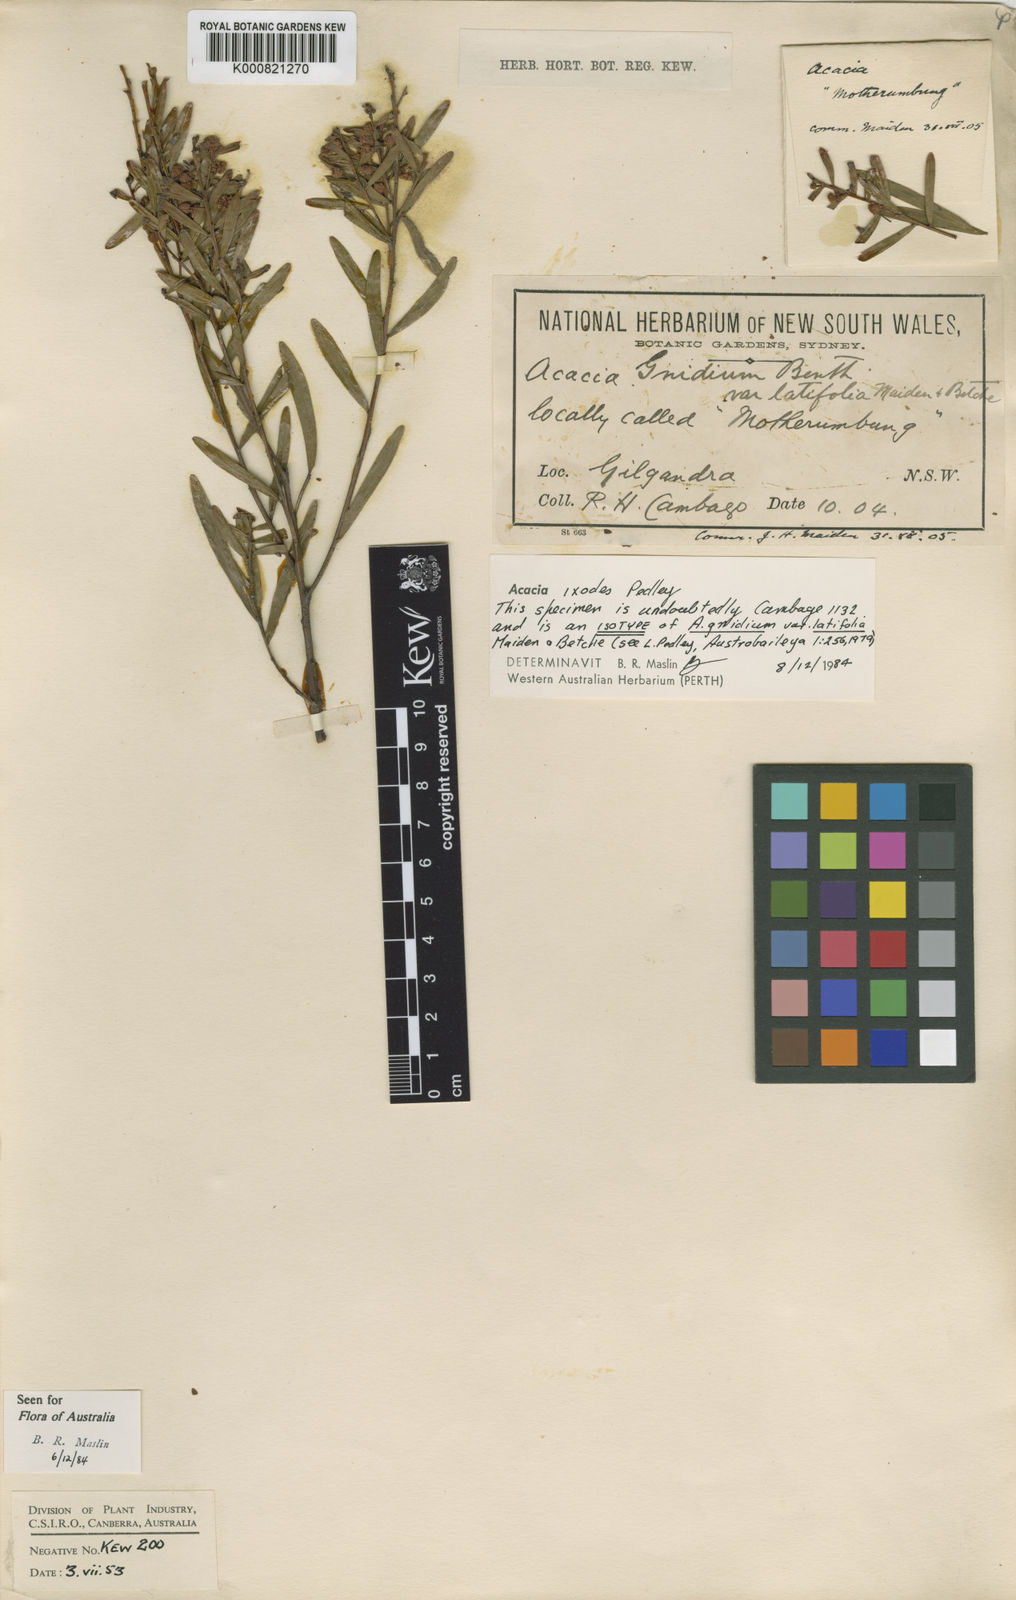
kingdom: Plantae
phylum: Tracheophyta
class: Magnoliopsida
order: Fabales
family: Fabaceae
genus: Acacia
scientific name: Acacia ixodes
